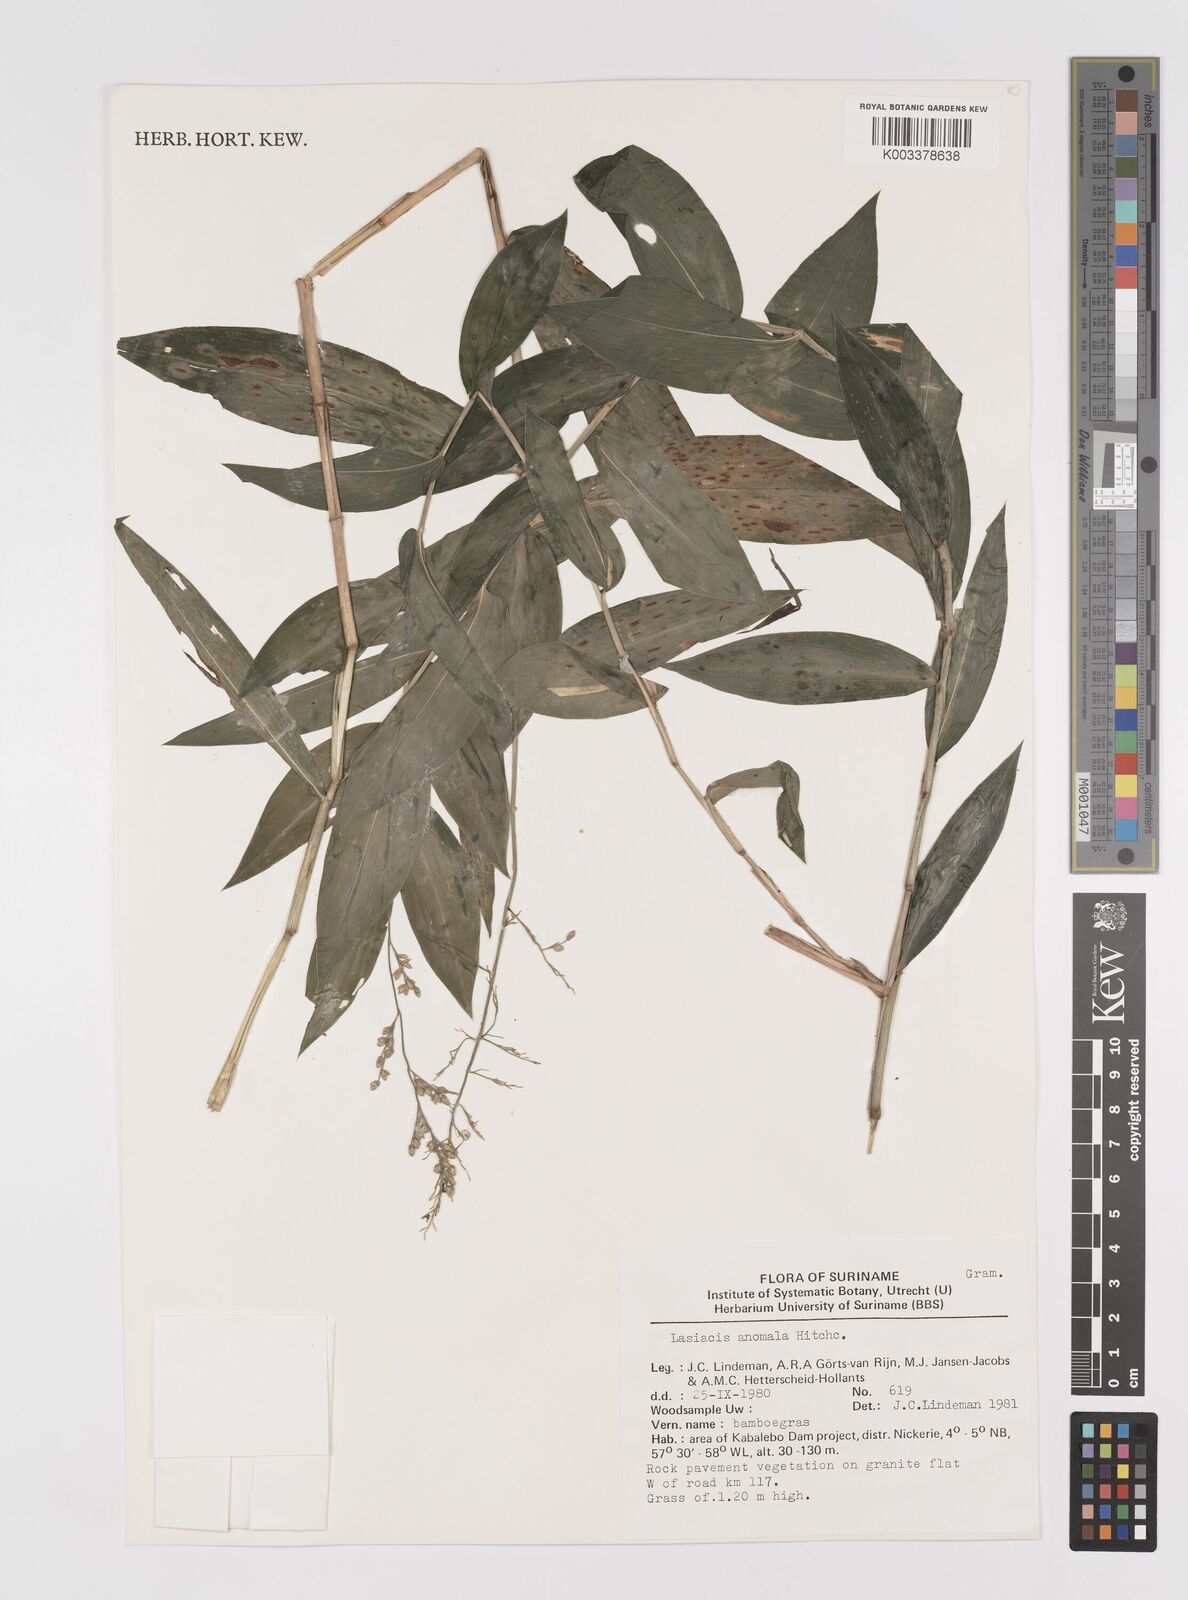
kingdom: Plantae
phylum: Tracheophyta
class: Liliopsida
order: Poales
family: Poaceae
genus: Lasiacis
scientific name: Lasiacis anomala
